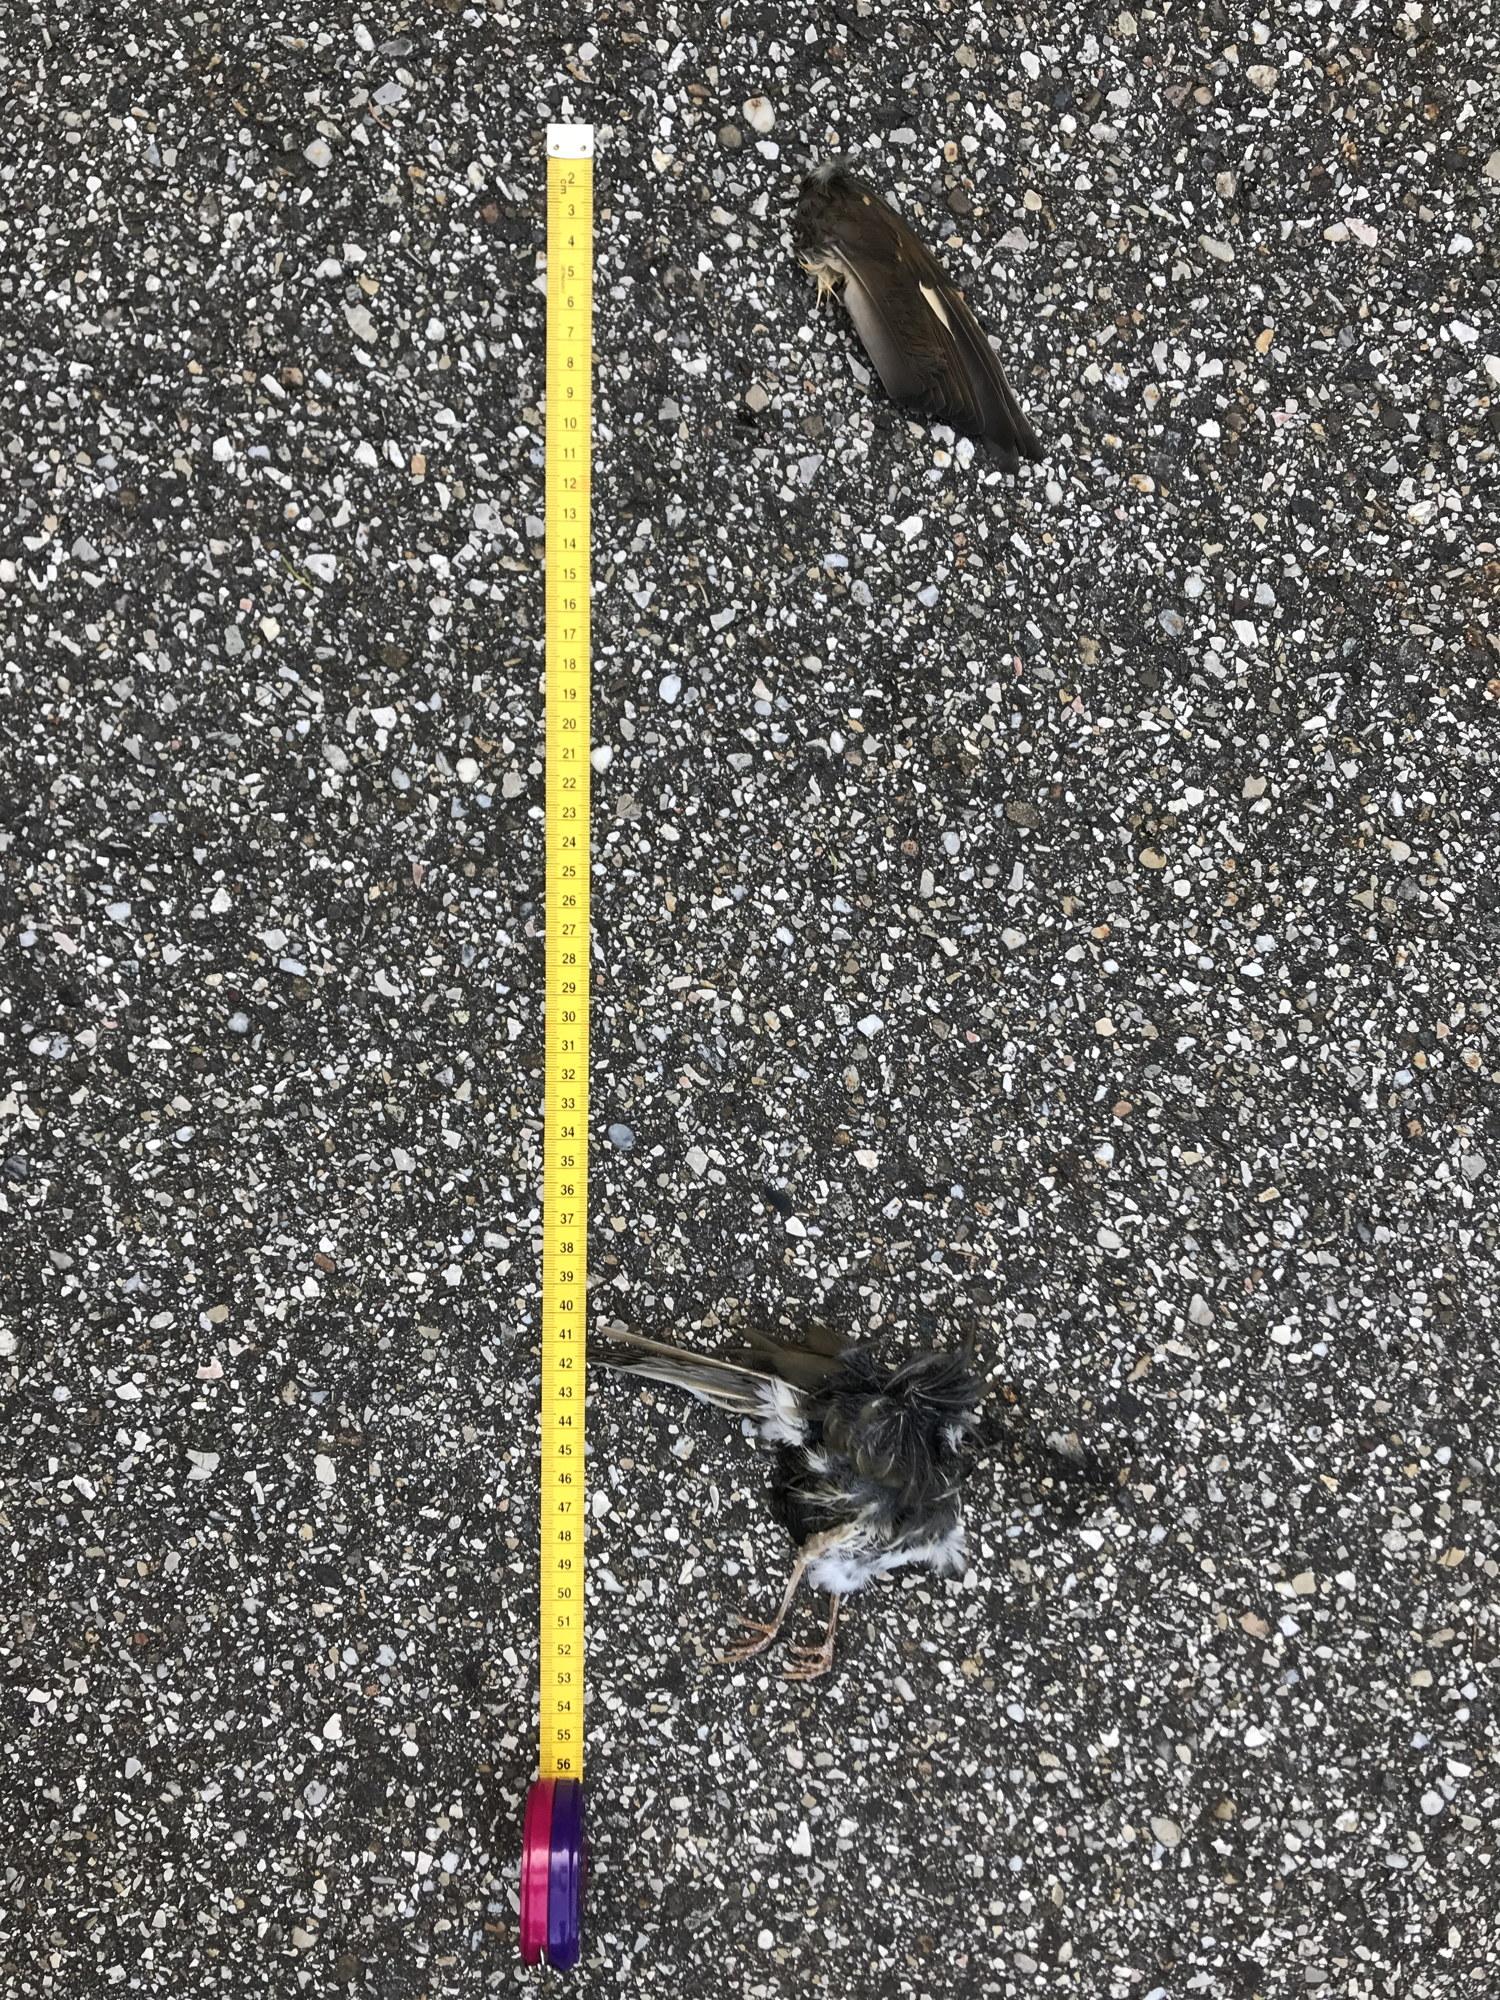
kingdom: Animalia
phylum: Chordata
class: Aves
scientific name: Aves
